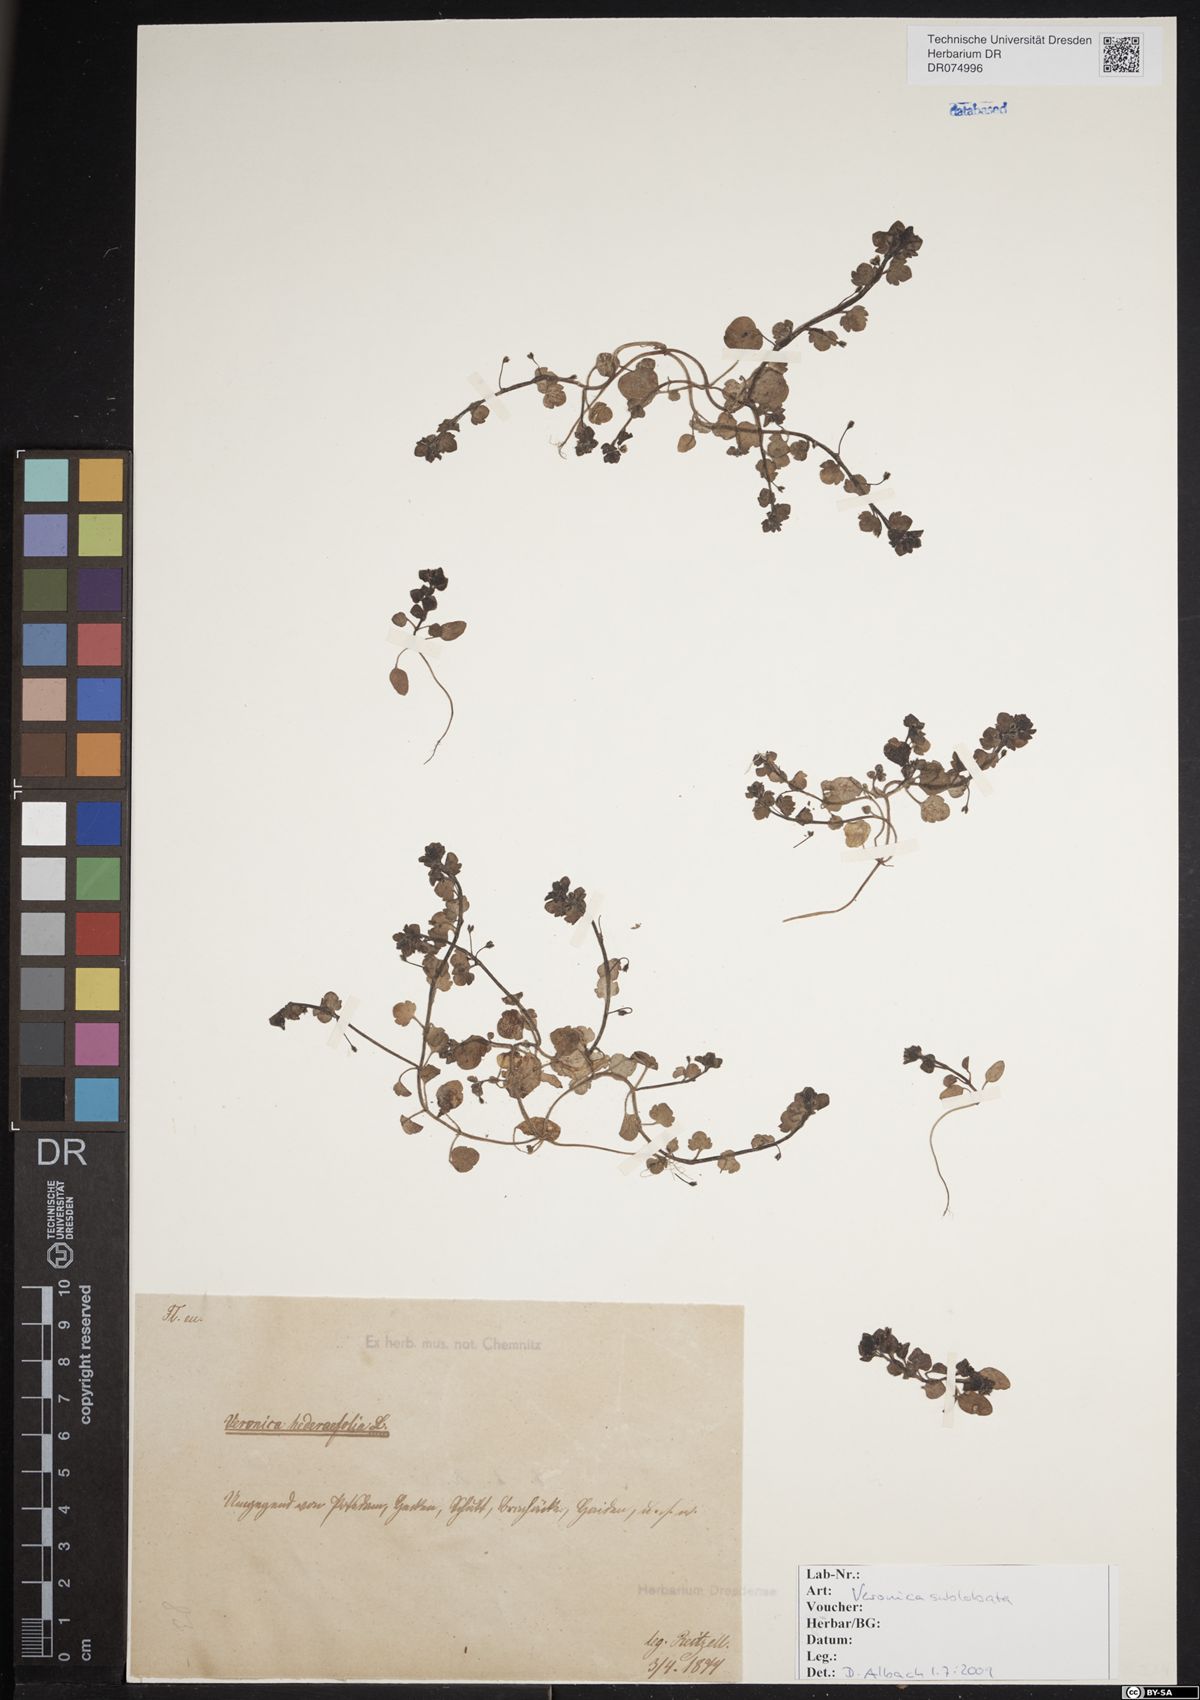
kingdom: Plantae
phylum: Tracheophyta
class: Magnoliopsida
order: Lamiales
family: Plantaginaceae
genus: Veronica
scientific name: Veronica sublobata
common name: False ivy-leaved speedwell
